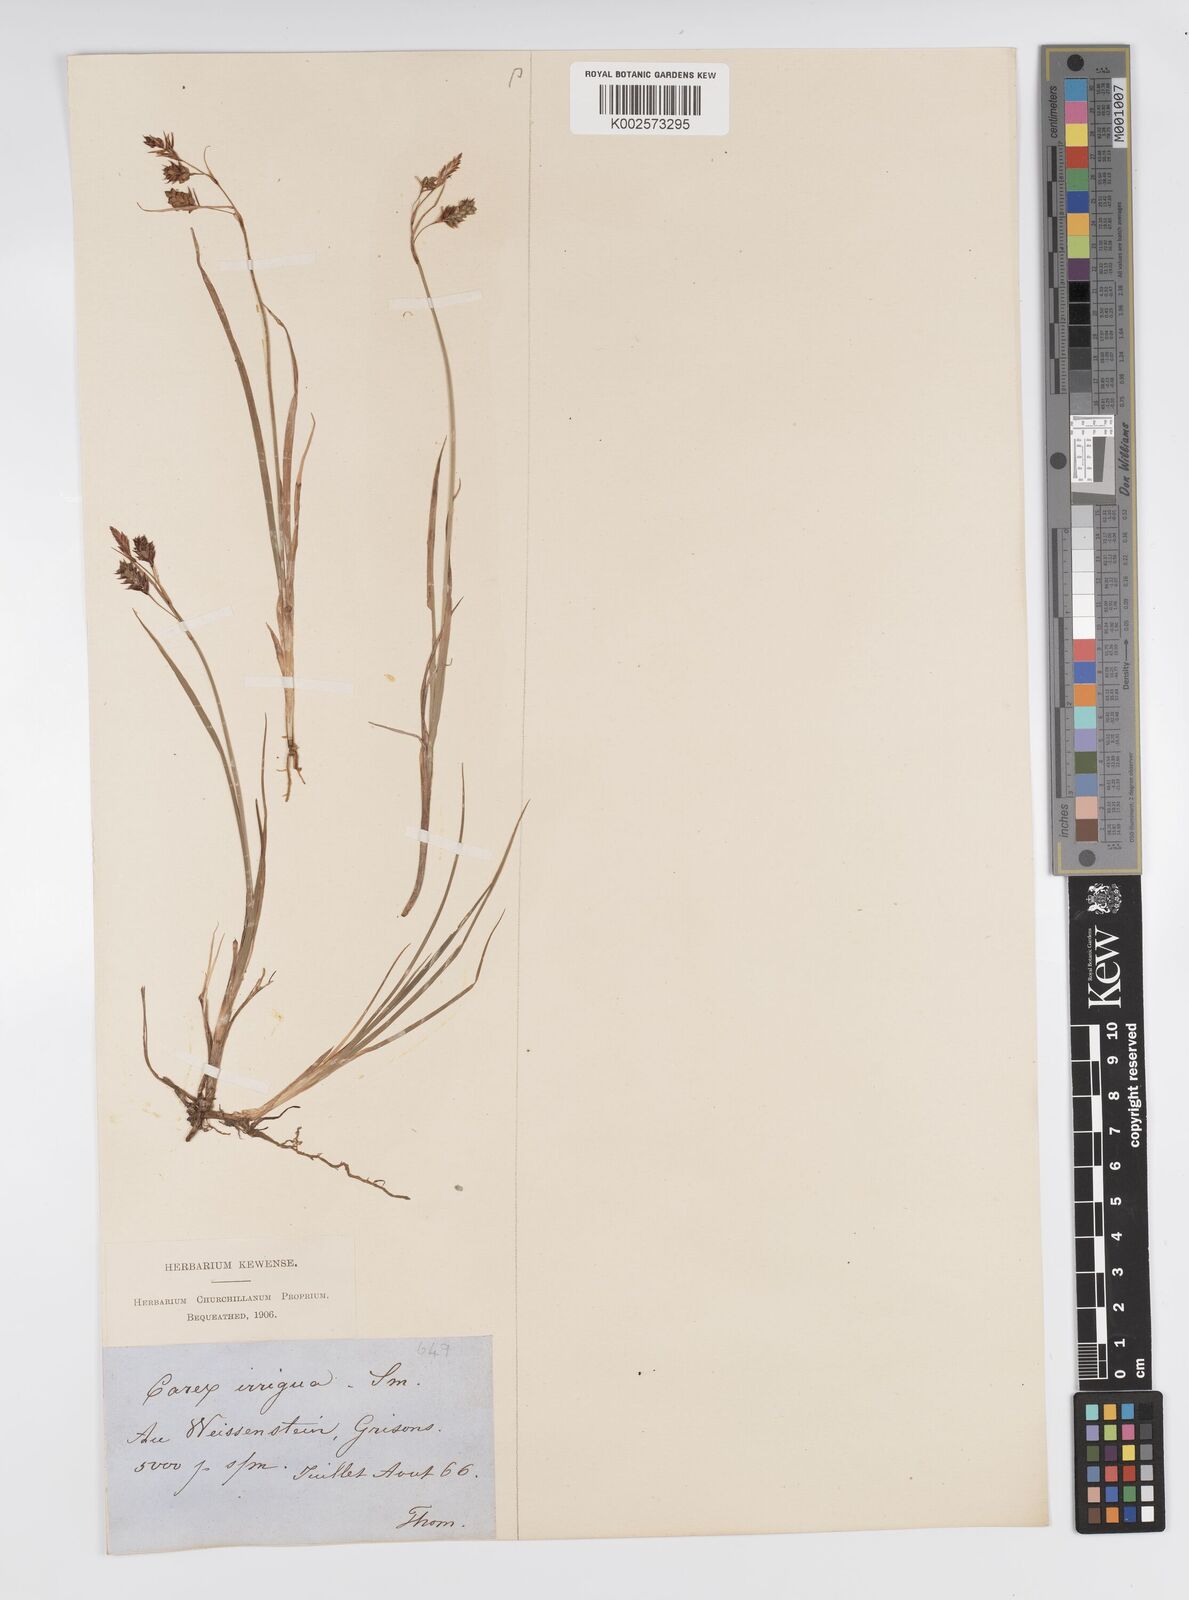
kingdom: Plantae
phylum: Tracheophyta
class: Liliopsida
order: Poales
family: Cyperaceae
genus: Carex
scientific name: Carex magellanica
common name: Bog sedge
